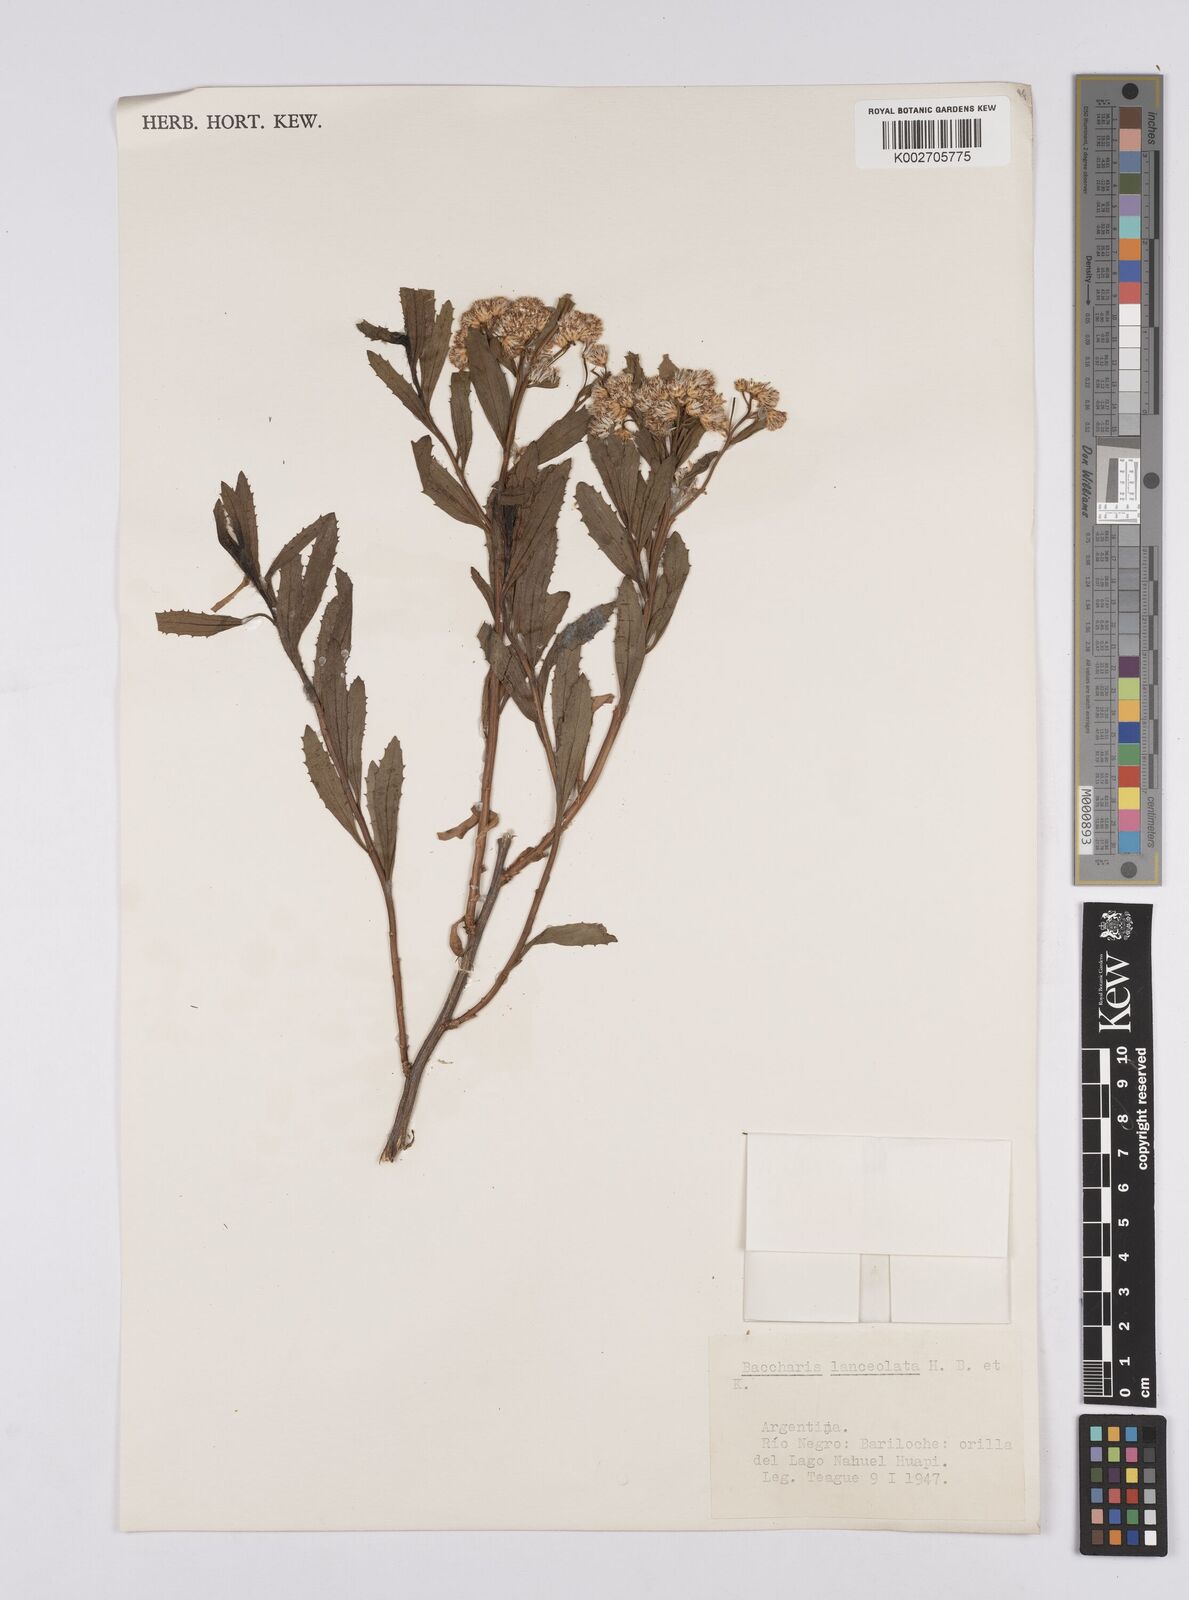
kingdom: Plantae
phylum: Tracheophyta
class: Magnoliopsida
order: Asterales
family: Asteraceae
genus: Baccharis
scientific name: Baccharis salicifolia
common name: Sticky baccharis
